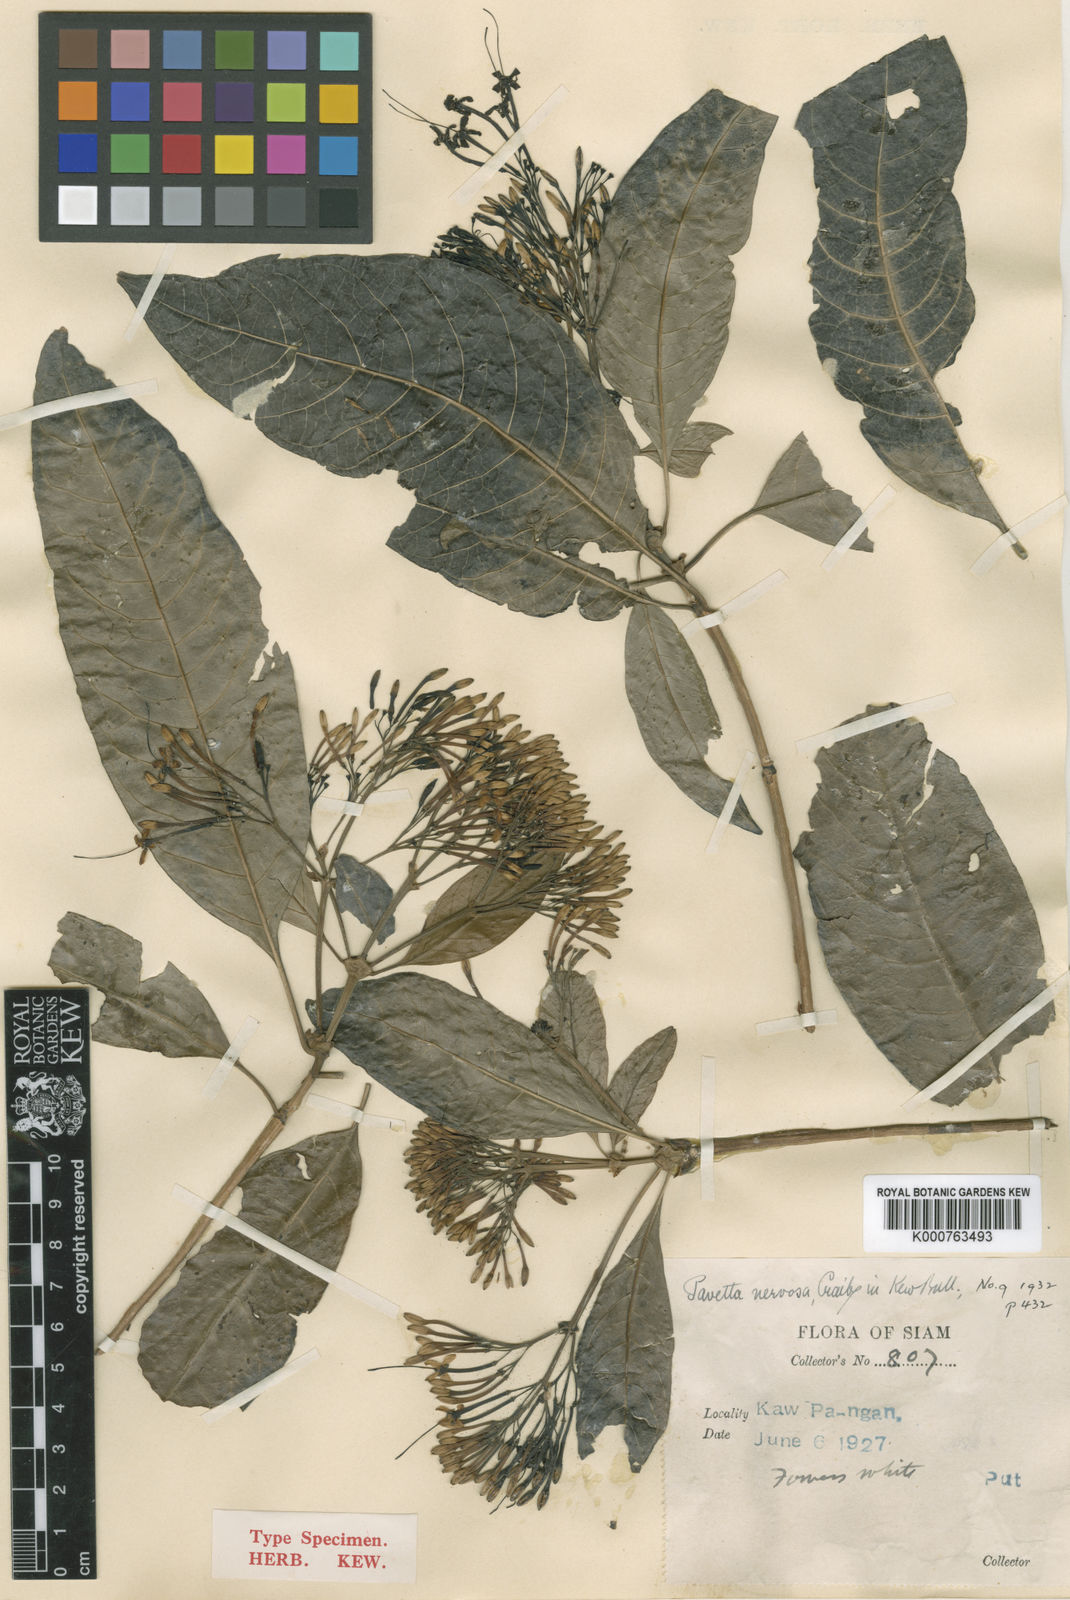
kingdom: Plantae
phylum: Tracheophyta
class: Magnoliopsida
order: Gentianales
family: Rubiaceae
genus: Pavetta
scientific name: Pavetta aspera
